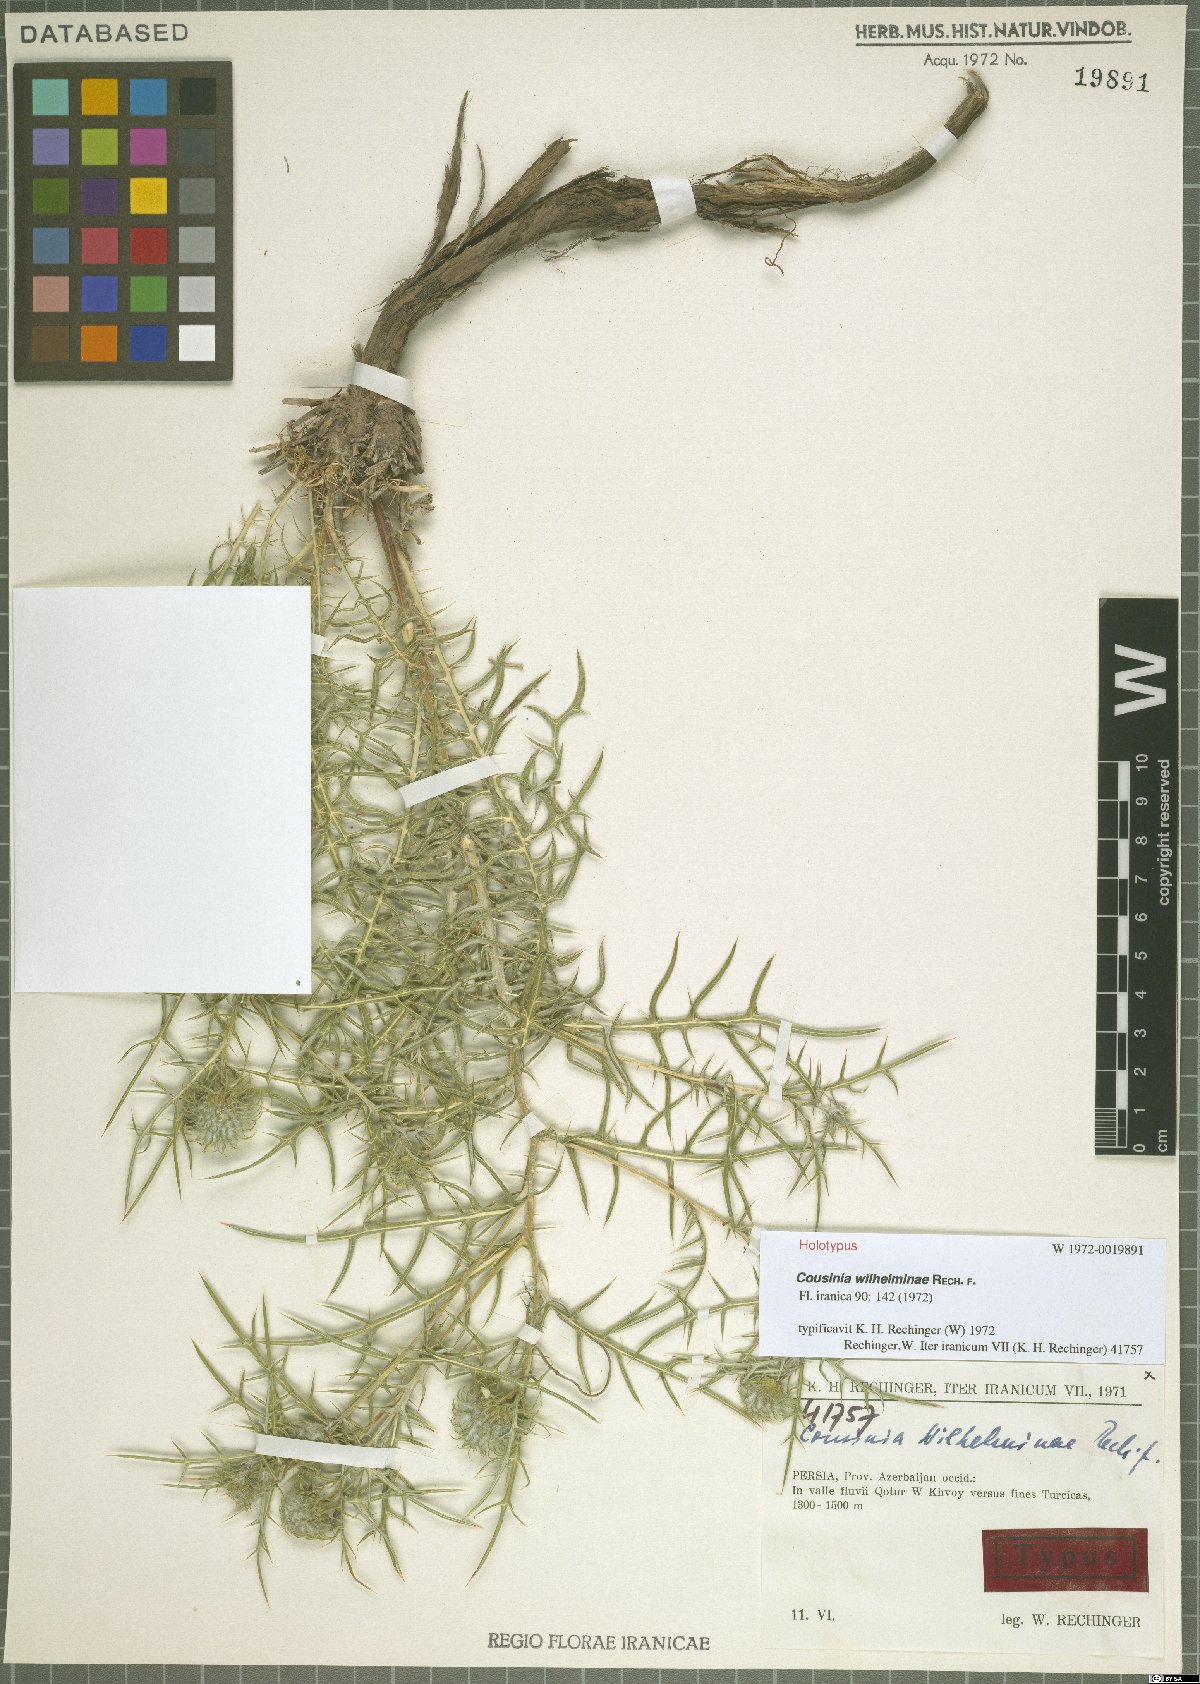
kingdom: Plantae
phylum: Tracheophyta
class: Magnoliopsida
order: Asterales
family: Asteraceae
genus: Cousinia
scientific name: Cousinia wilhelminae
